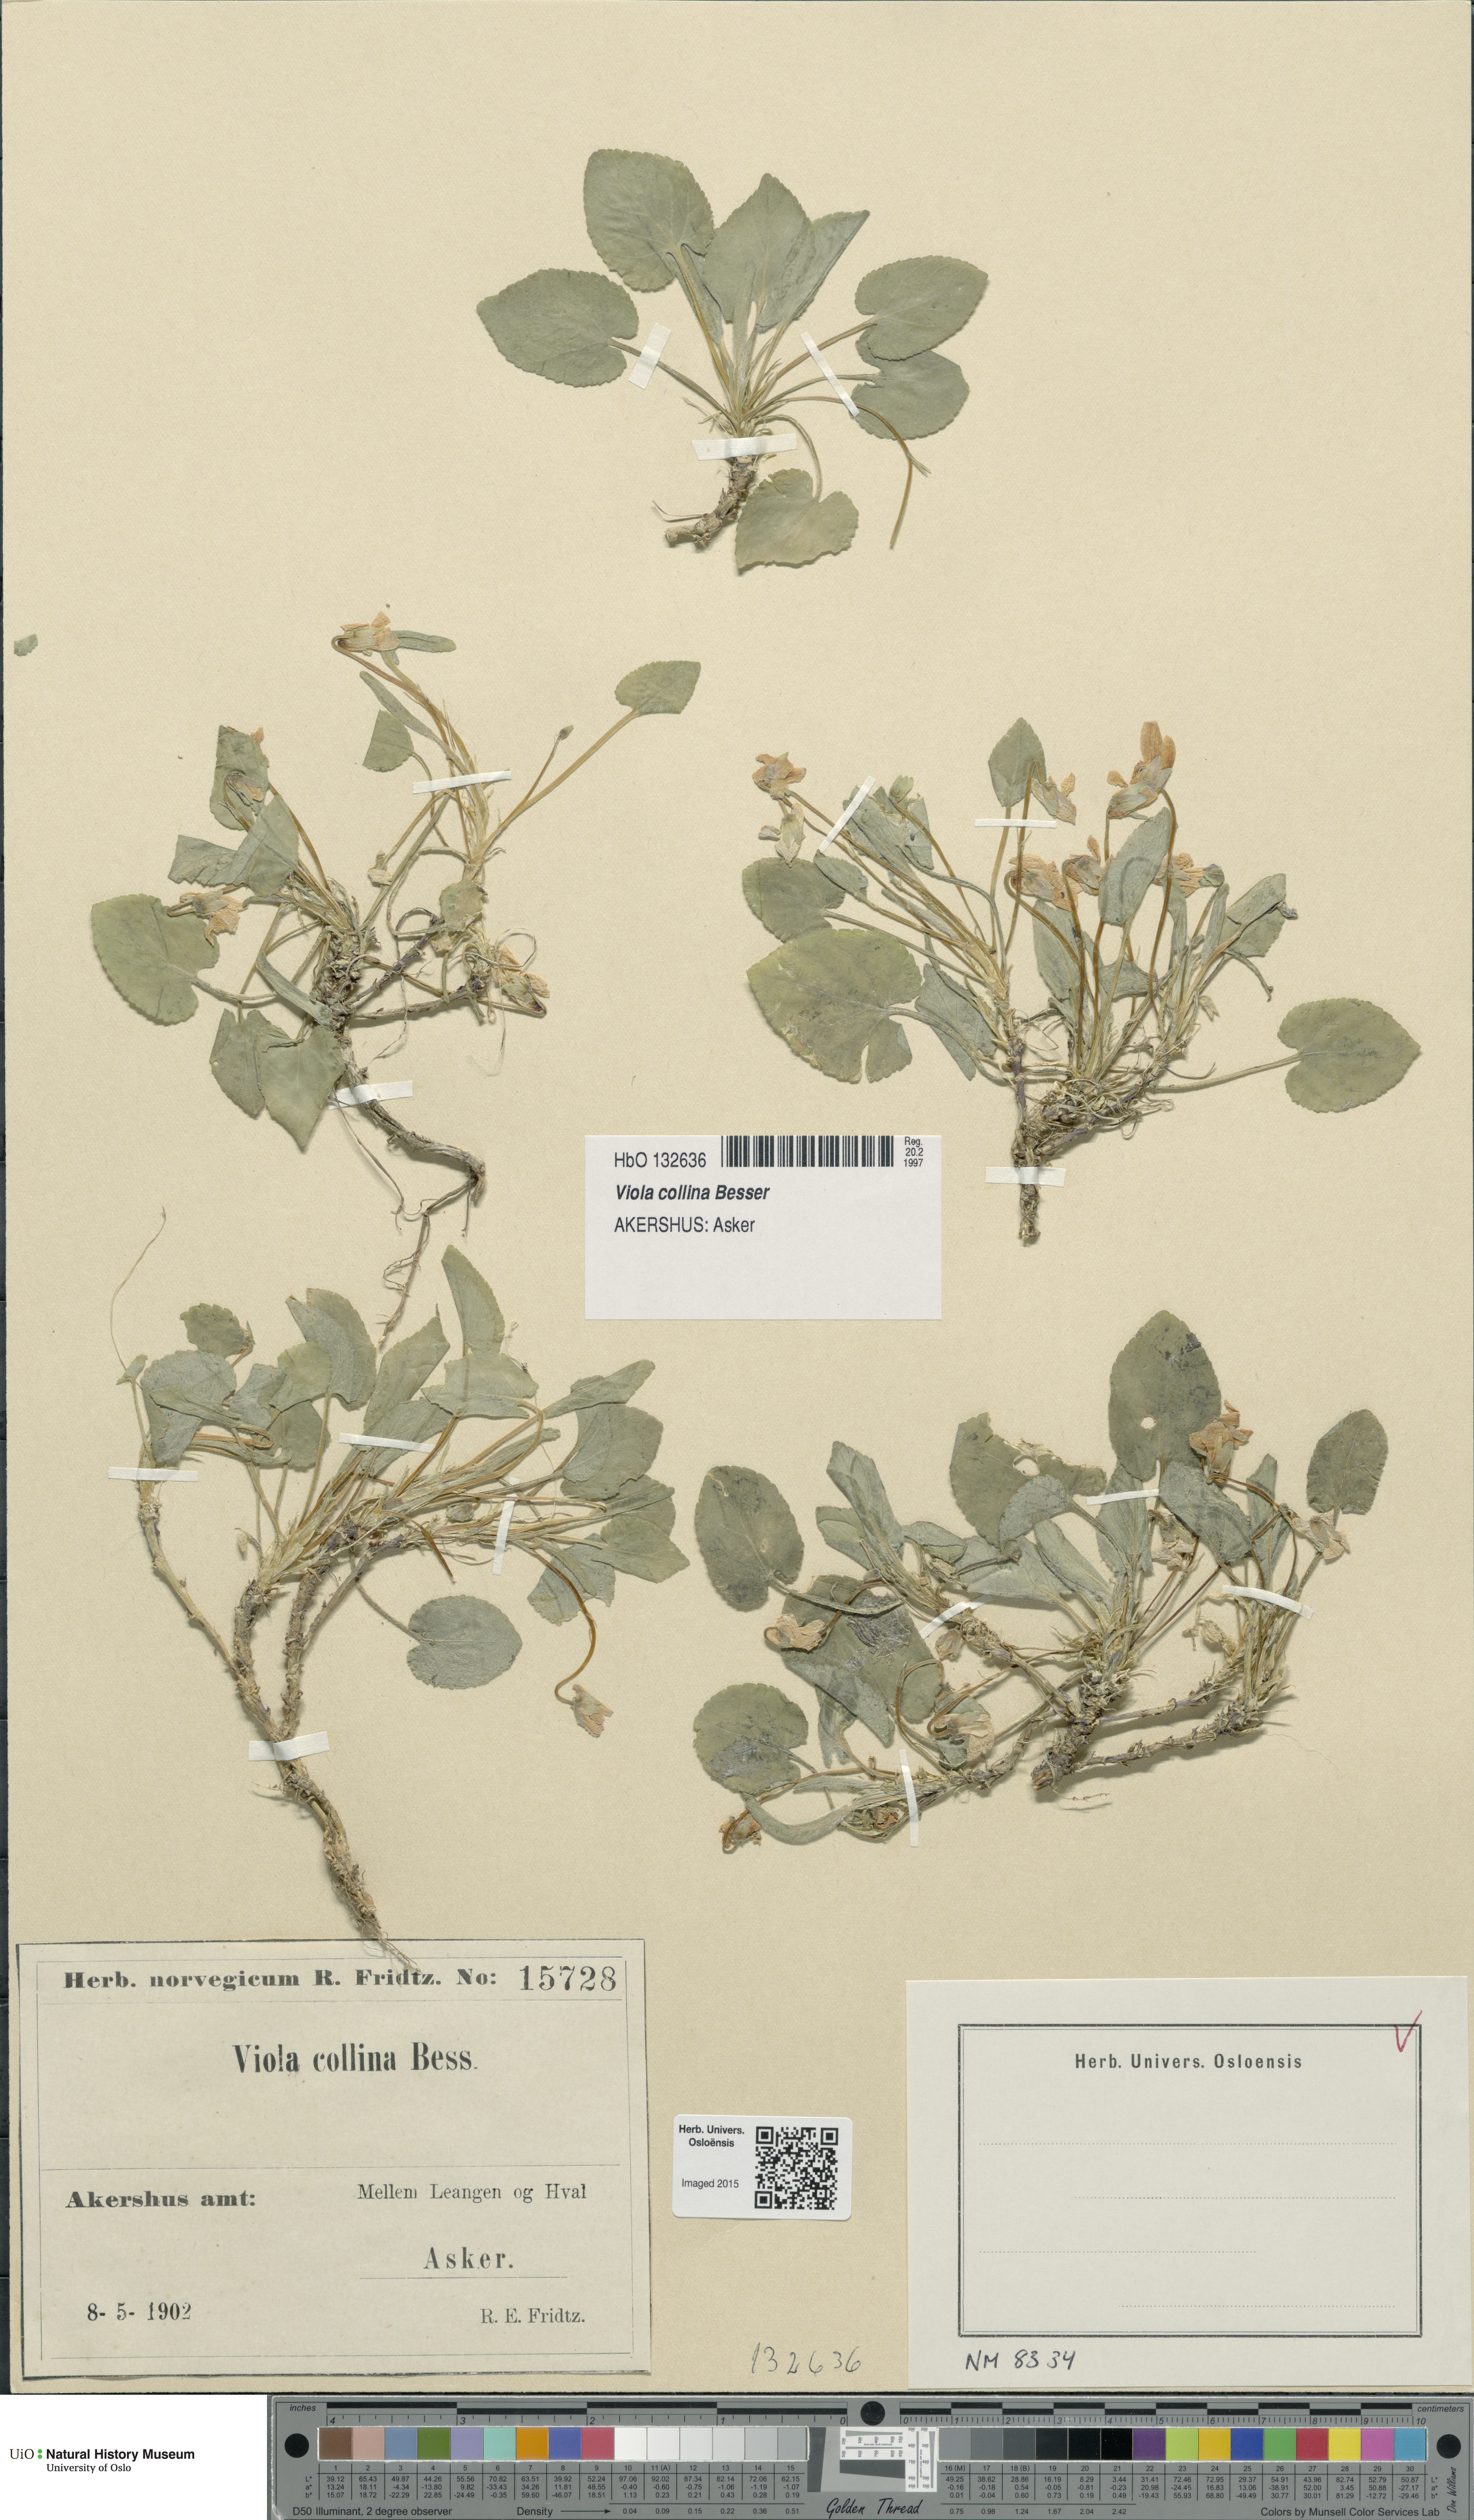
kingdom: Plantae
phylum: Tracheophyta
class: Magnoliopsida
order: Malpighiales
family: Violaceae
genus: Viola
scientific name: Viola collina
